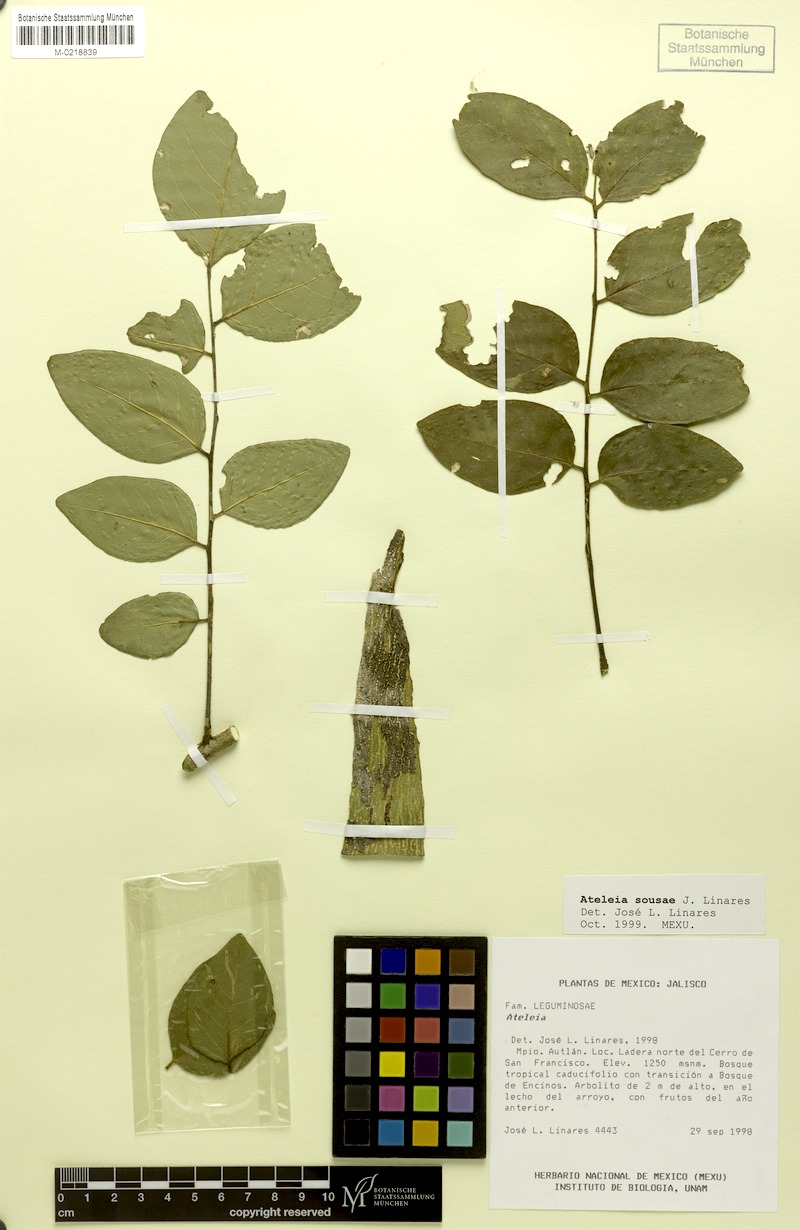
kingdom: Plantae
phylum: Tracheophyta
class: Magnoliopsida
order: Fabales
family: Fabaceae
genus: Ateleia
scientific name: Ateleia sousae
